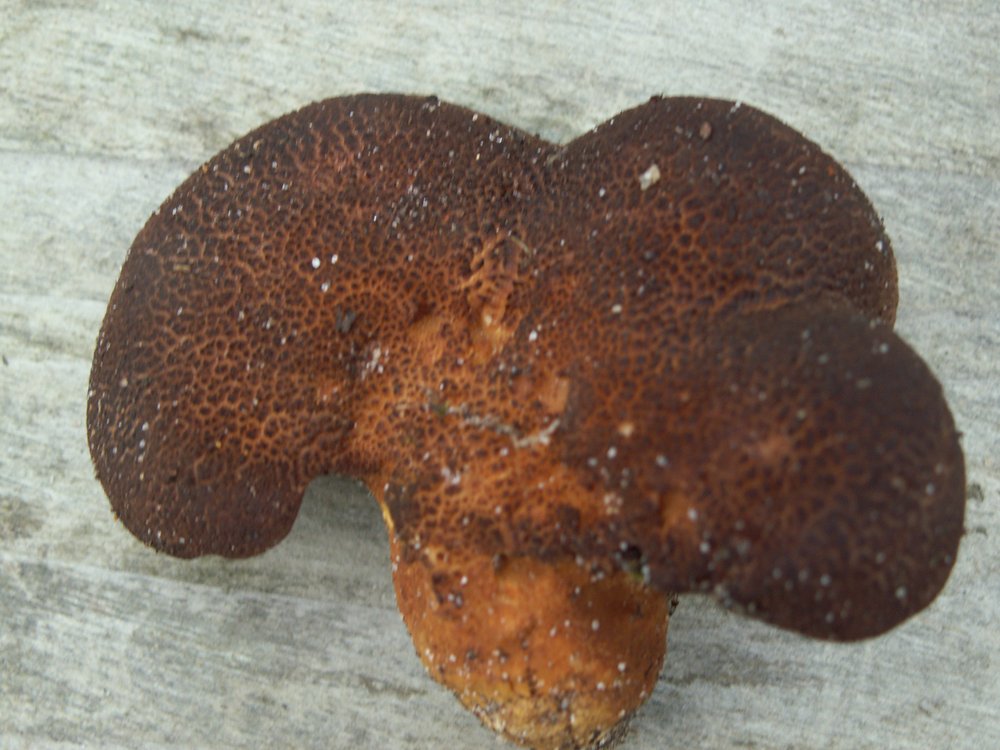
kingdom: Fungi
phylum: Basidiomycota
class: Agaricomycetes
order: Russulales
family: Albatrellaceae
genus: Scutiger
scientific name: Scutiger pes-caprae
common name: skællet fåreporesvamp
